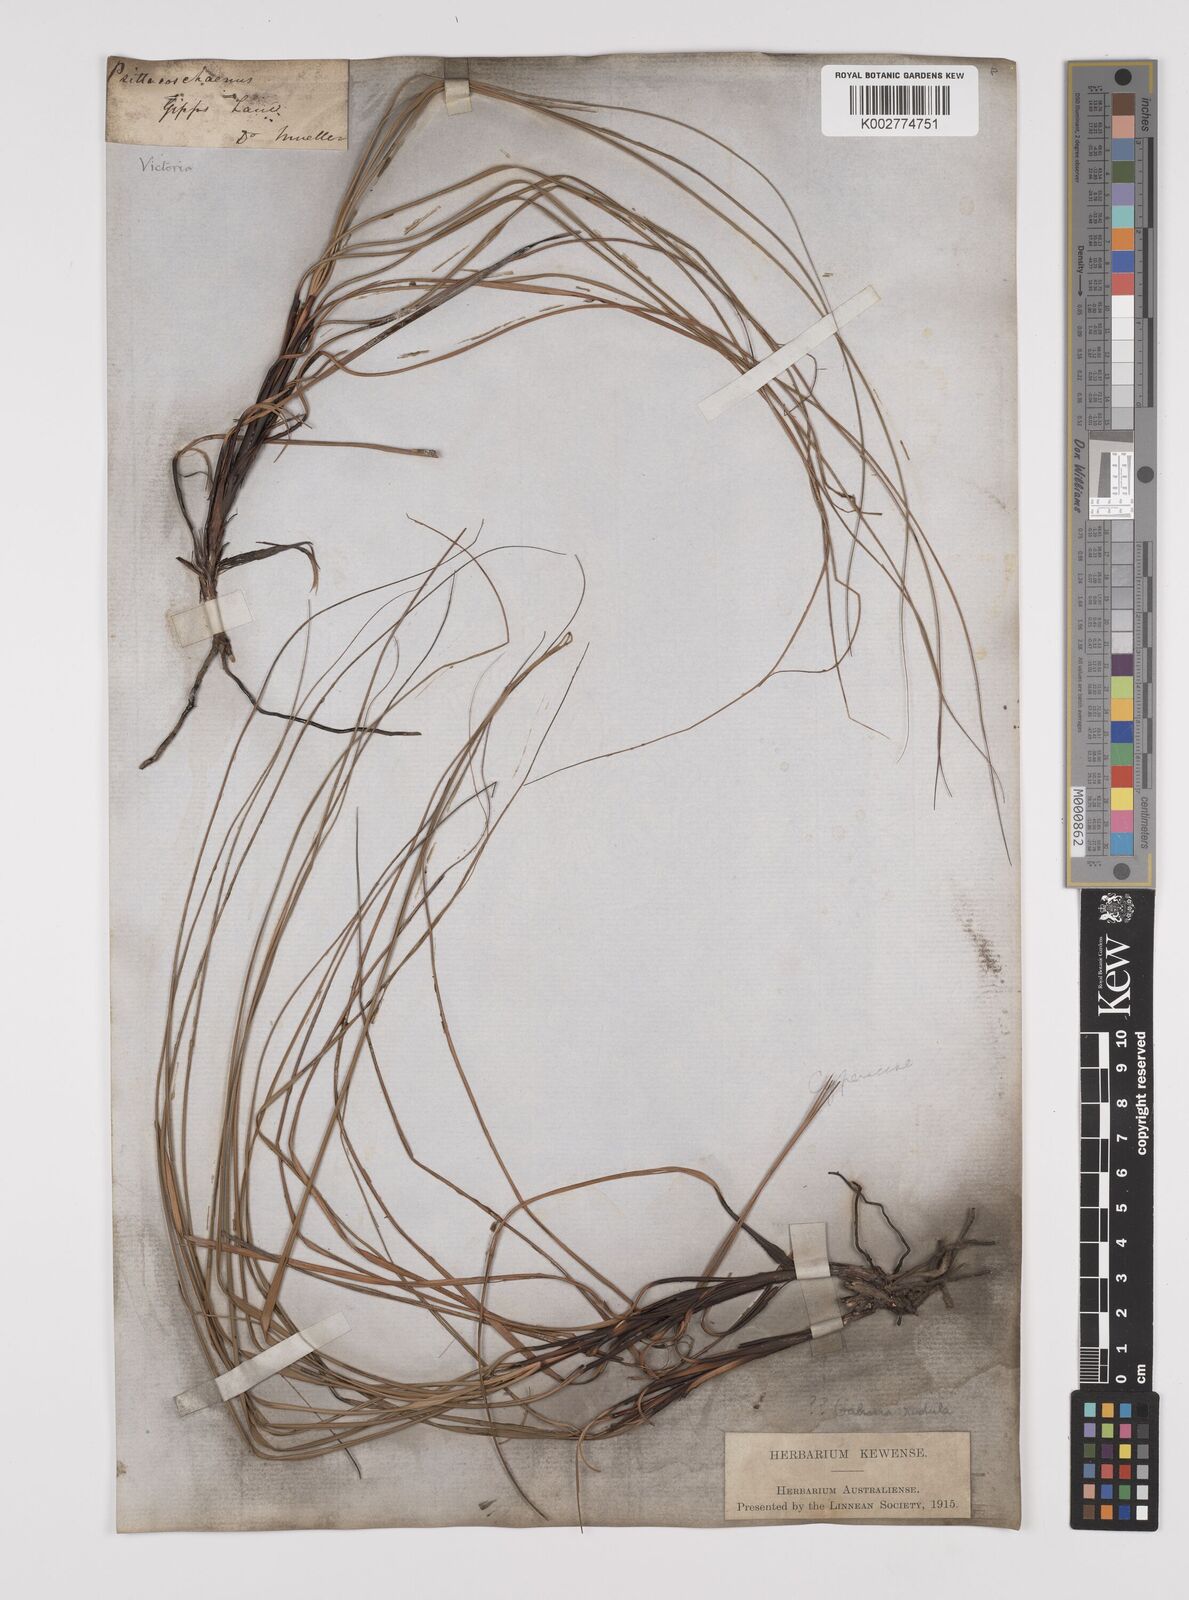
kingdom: Plantae
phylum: Tracheophyta
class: Liliopsida
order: Poales
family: Cyperaceae
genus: Gahnia
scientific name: Gahnia
